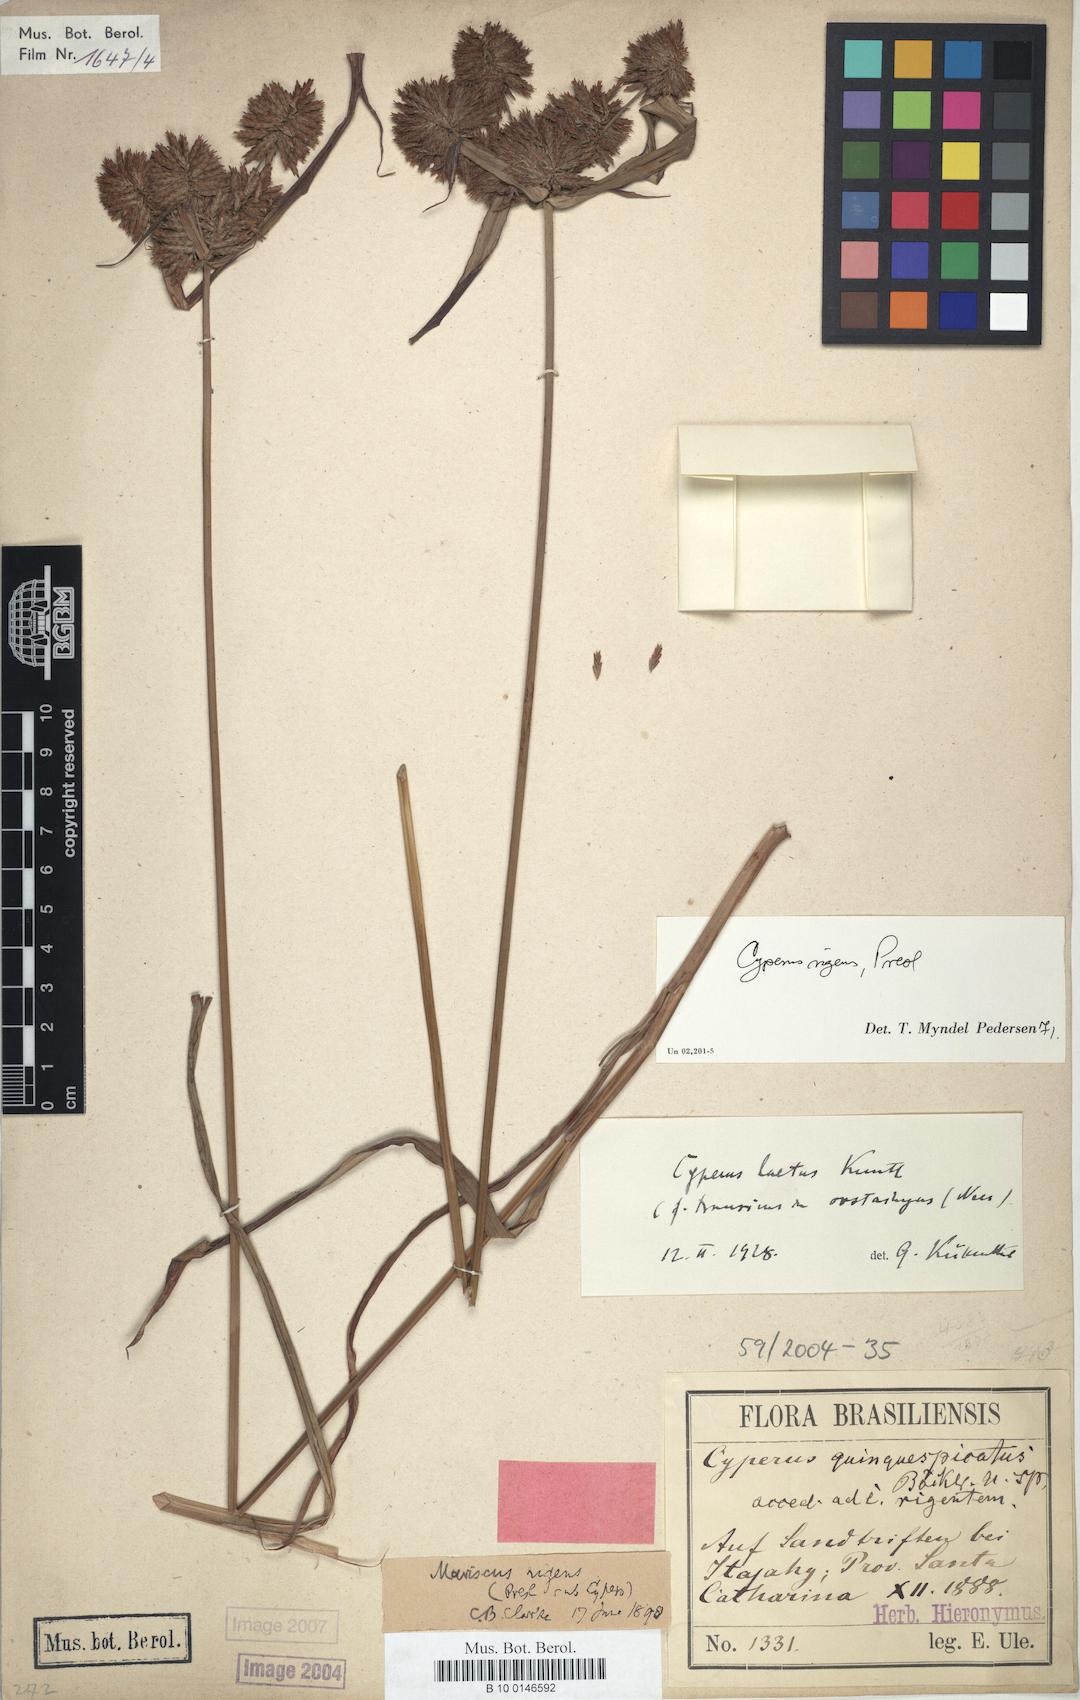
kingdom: Plantae
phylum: Tracheophyta
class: Liliopsida
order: Poales
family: Cyperaceae
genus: Cyperus
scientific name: Cyperus rigens
